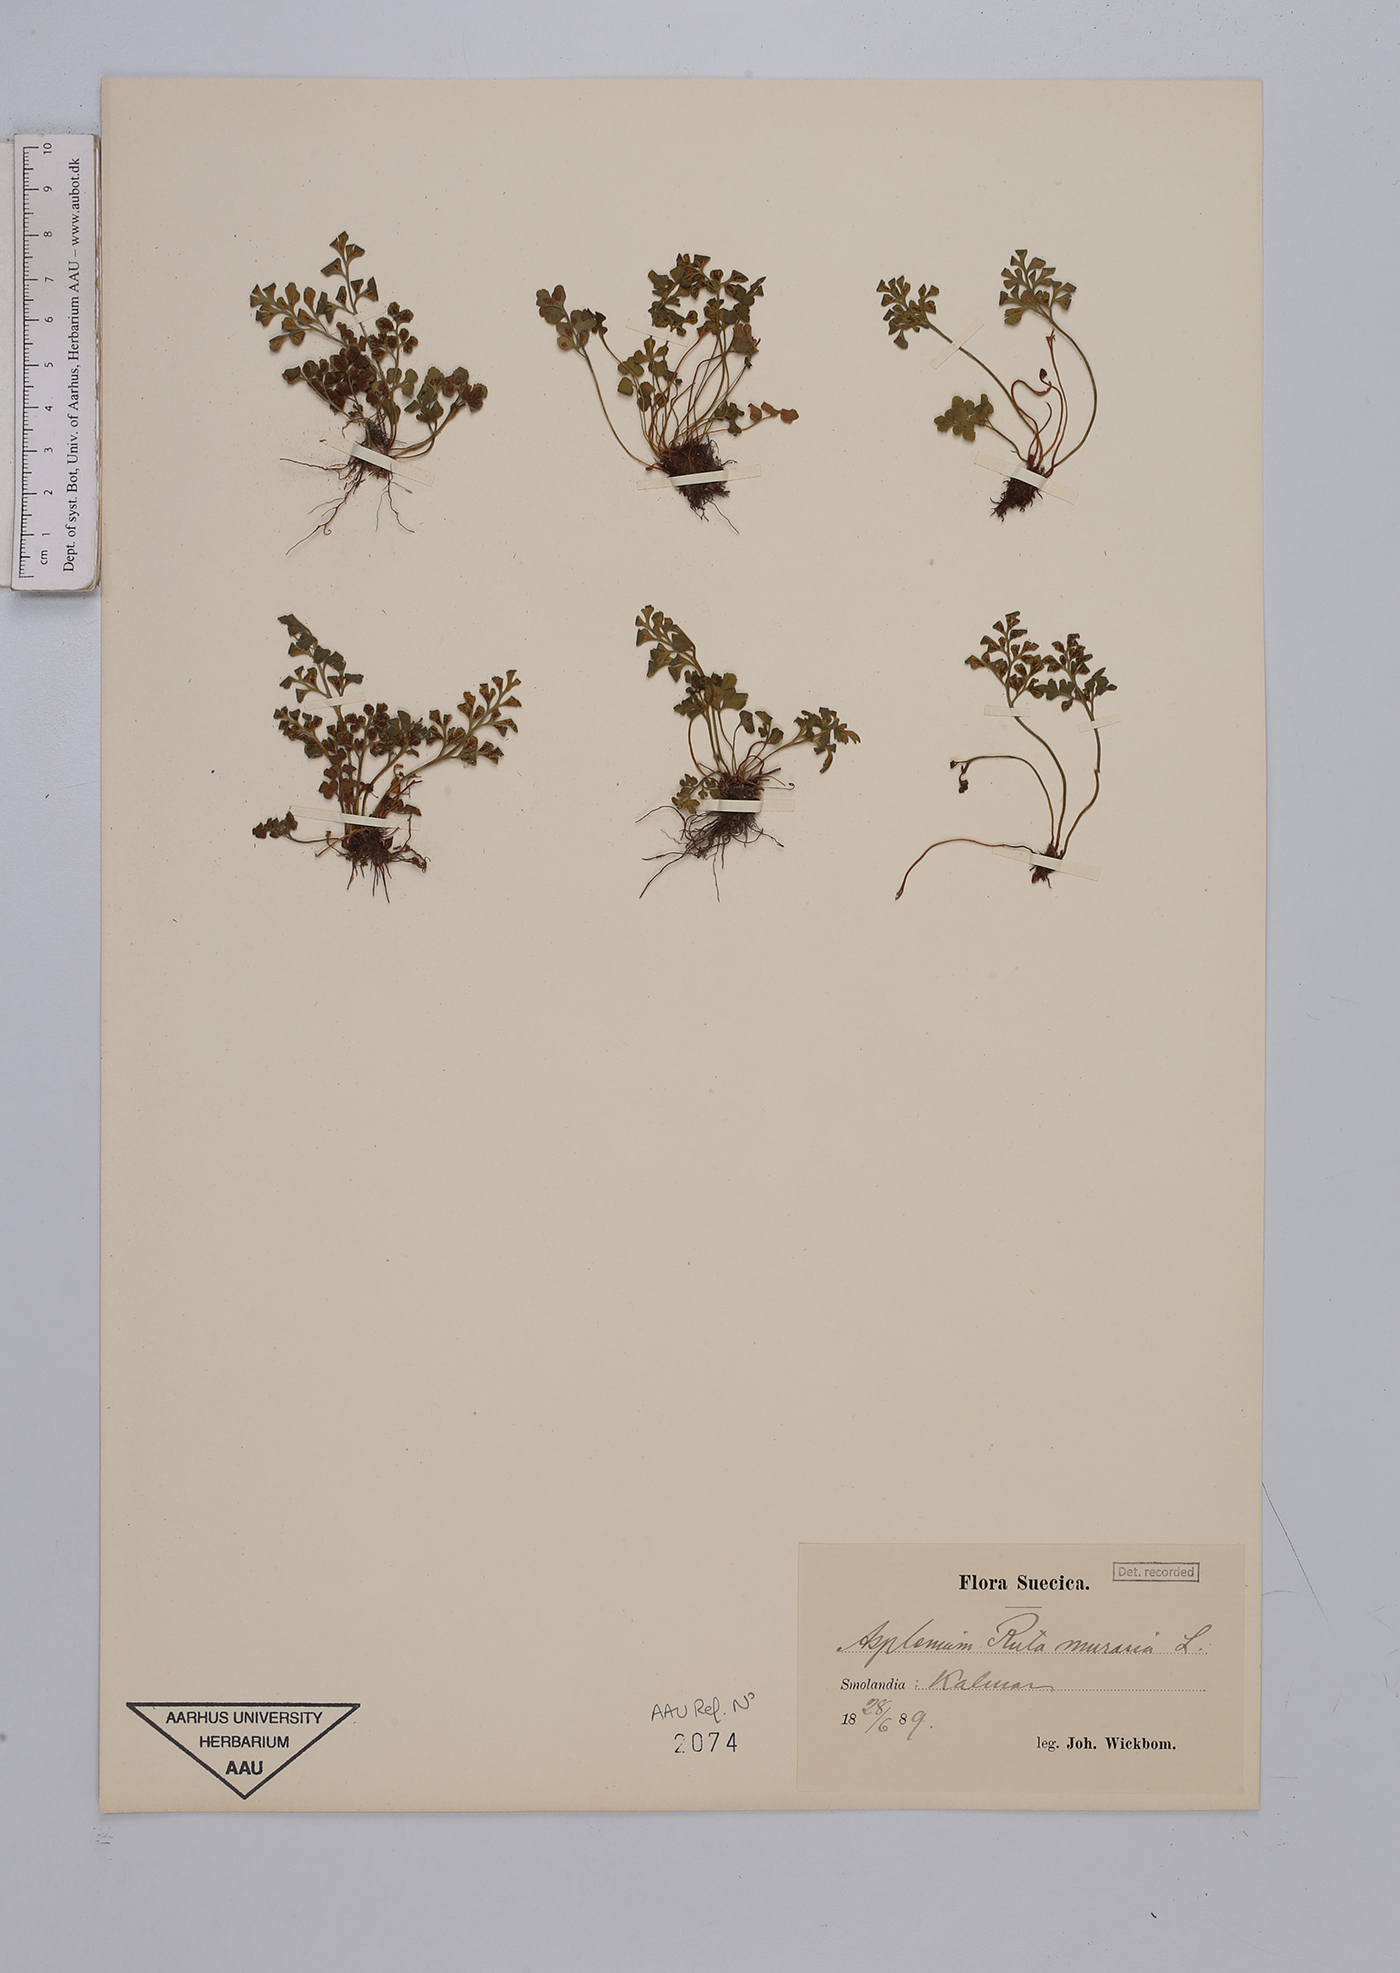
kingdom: Plantae
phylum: Tracheophyta
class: Polypodiopsida
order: Polypodiales
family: Aspleniaceae
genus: Asplenium
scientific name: Asplenium ruta-muraria
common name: Wall-rue
